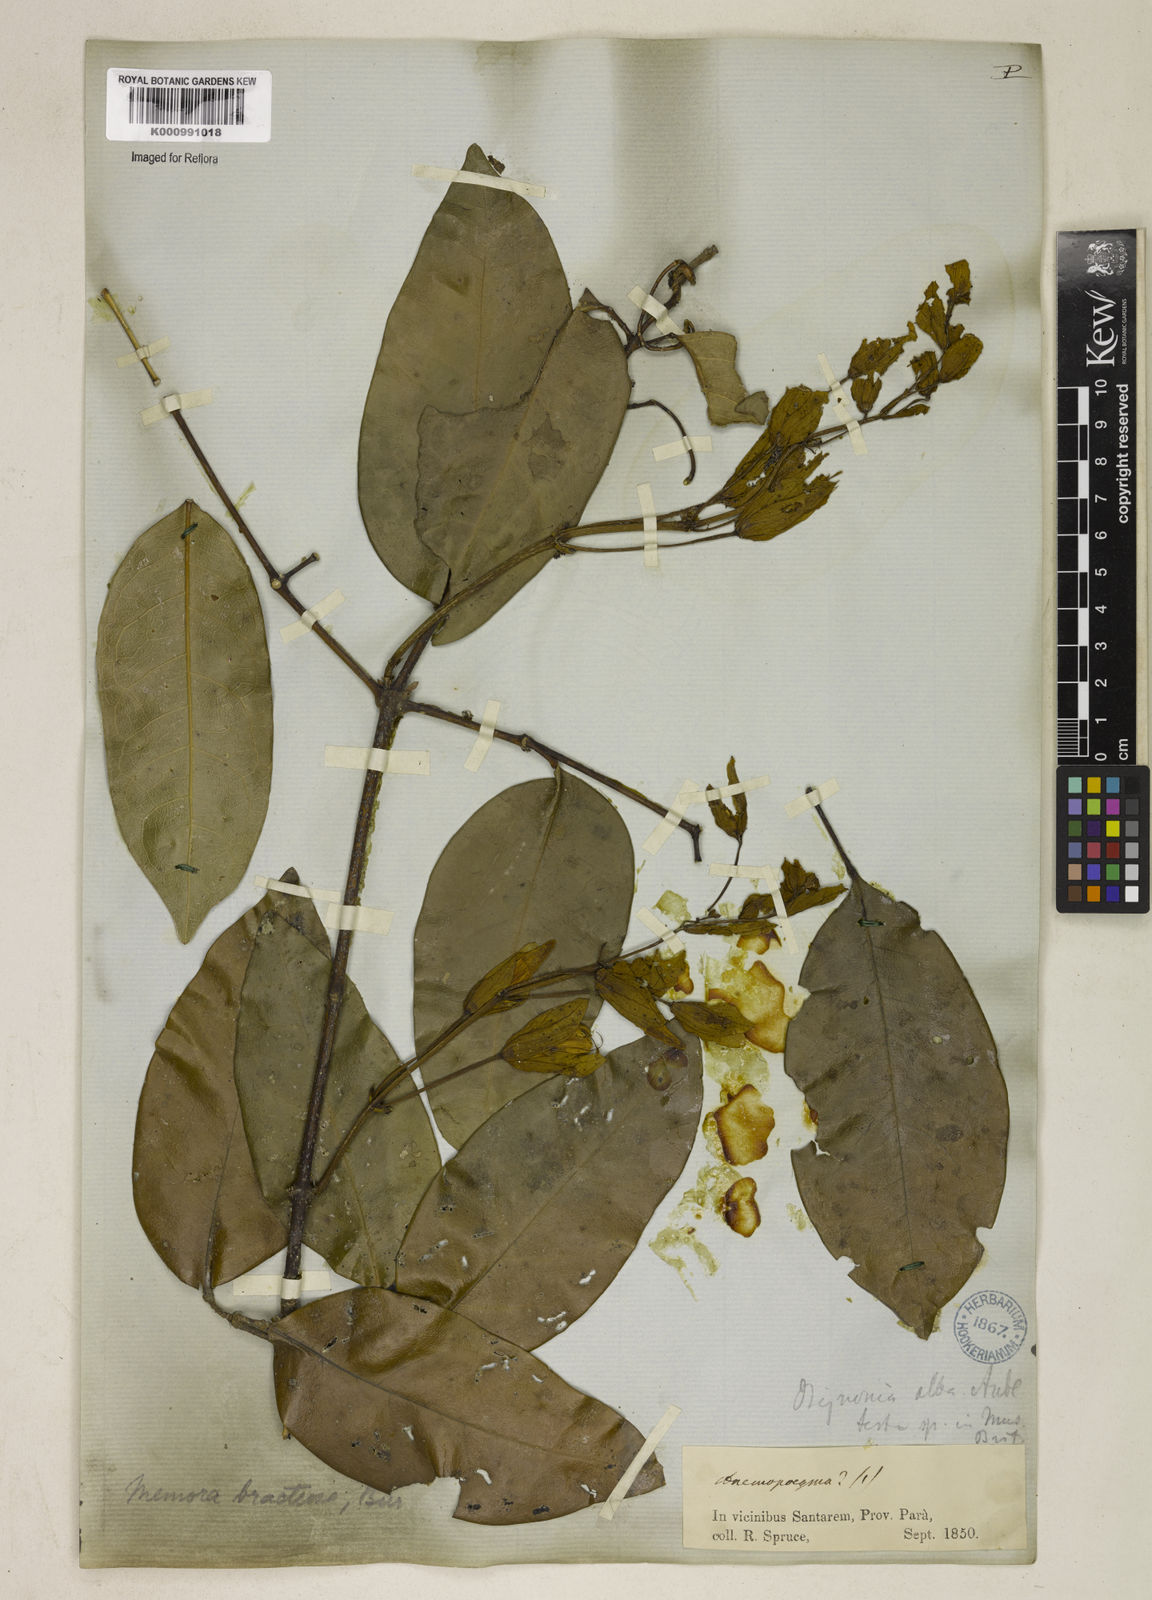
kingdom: Plantae
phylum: Tracheophyta
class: Magnoliopsida
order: Lamiales
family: Bignoniaceae
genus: Adenocalymma
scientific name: Adenocalymma
